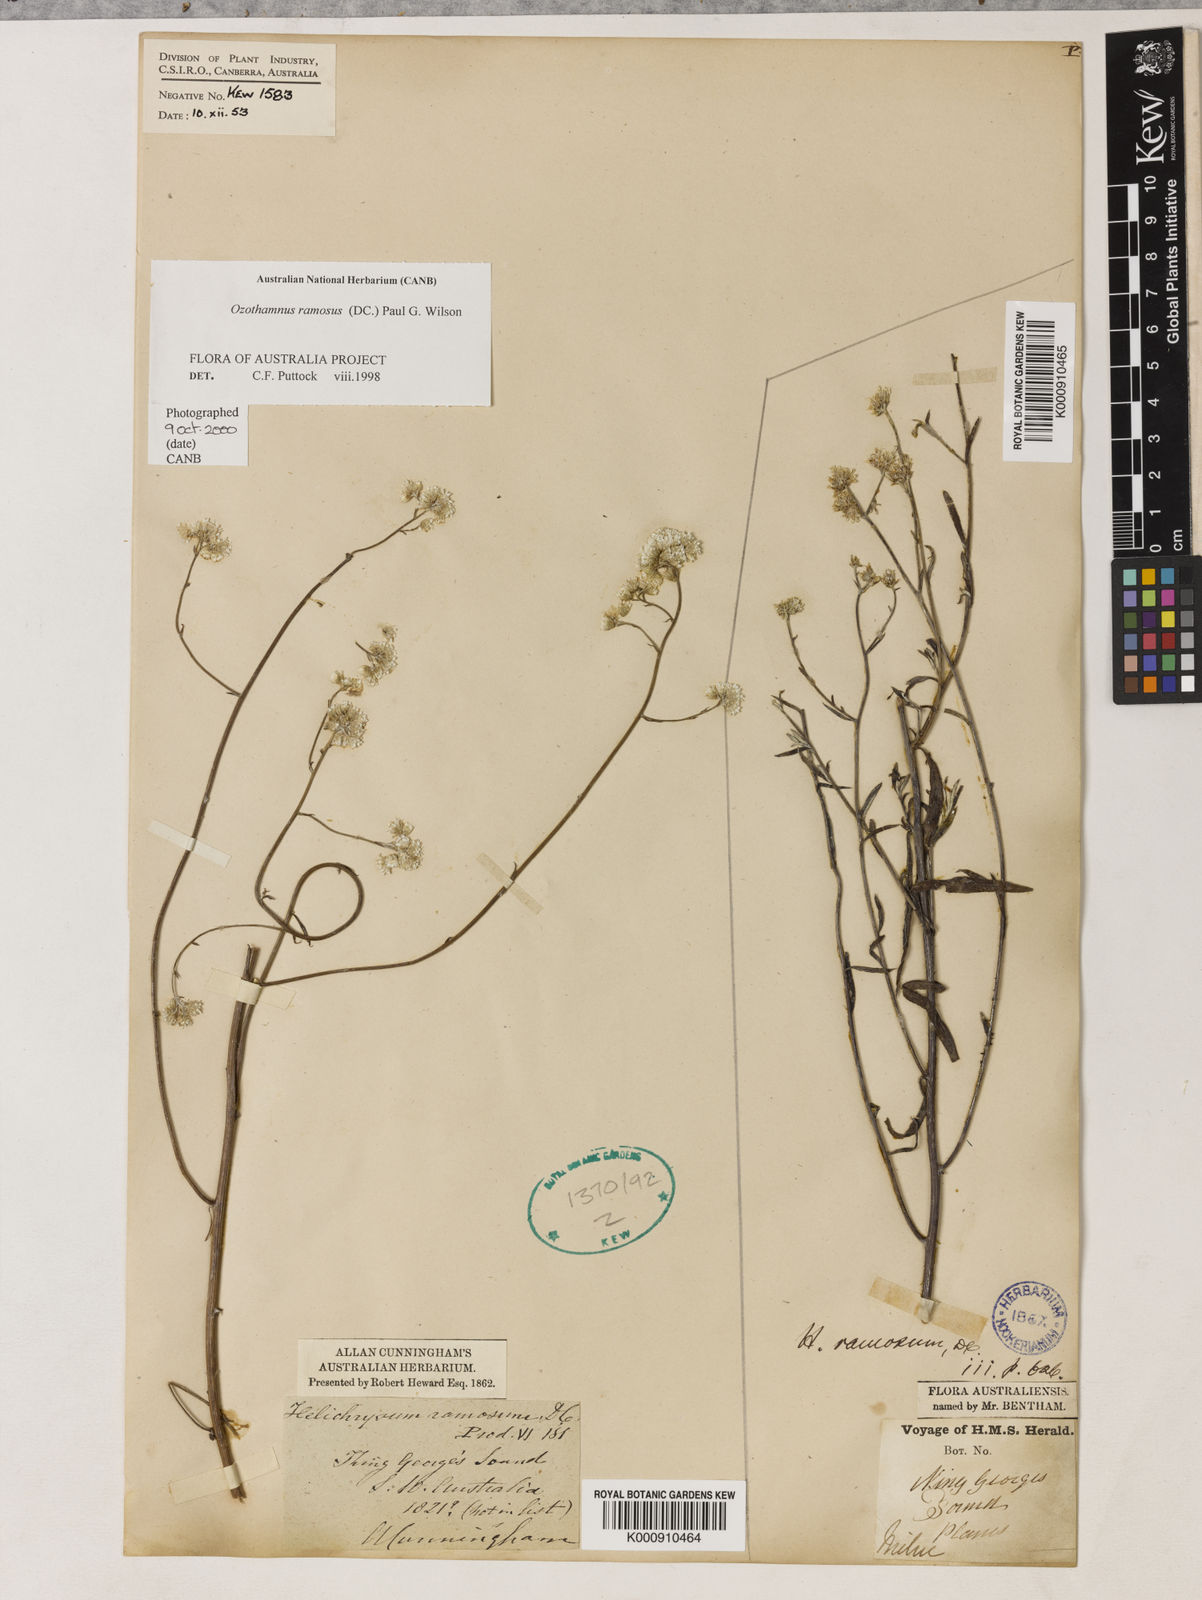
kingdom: Plantae
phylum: Tracheophyta
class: Magnoliopsida
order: Asterales
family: Asteraceae
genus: Pithocarpa
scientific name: Pithocarpa ramosa
